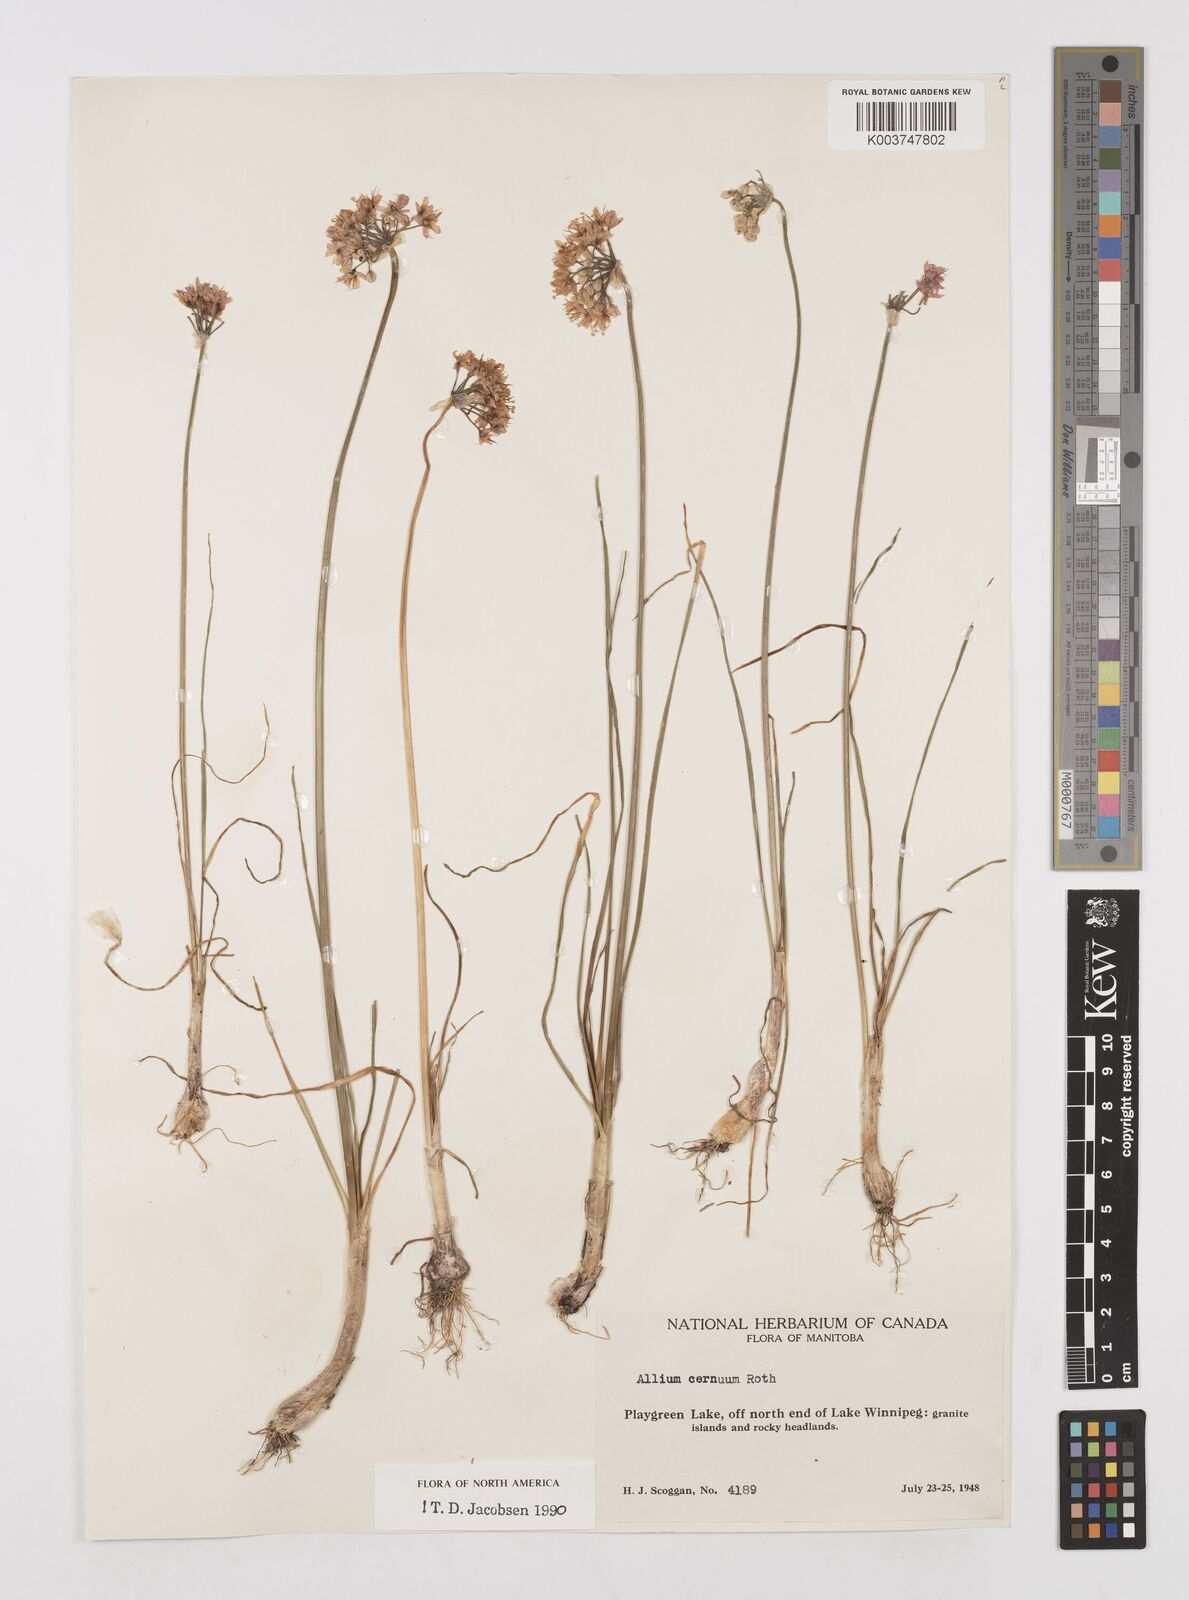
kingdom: Plantae
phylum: Tracheophyta
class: Liliopsida
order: Asparagales
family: Amaryllidaceae
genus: Allium
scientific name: Allium cernuum
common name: Nodding onion
